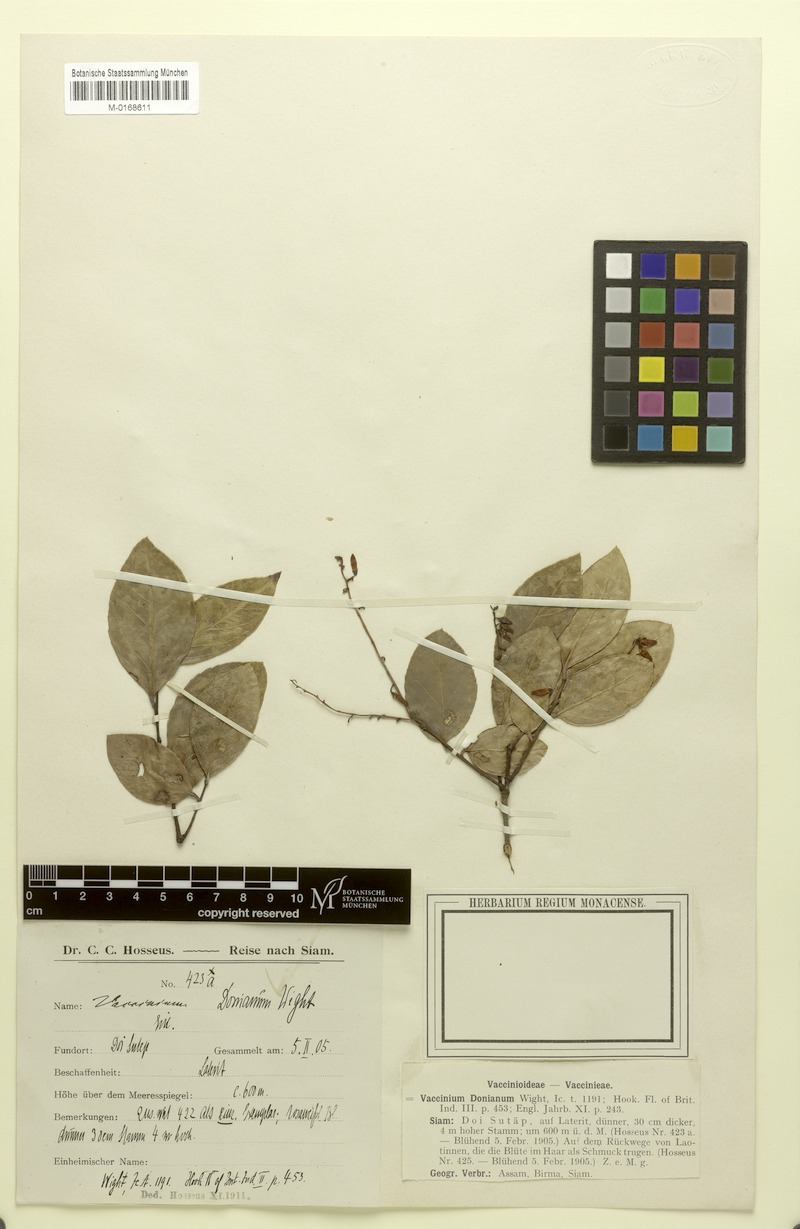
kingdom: Plantae
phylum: Tracheophyta
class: Magnoliopsida
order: Ericales
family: Ericaceae
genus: Vaccinium
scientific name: Vaccinium sprengelii
